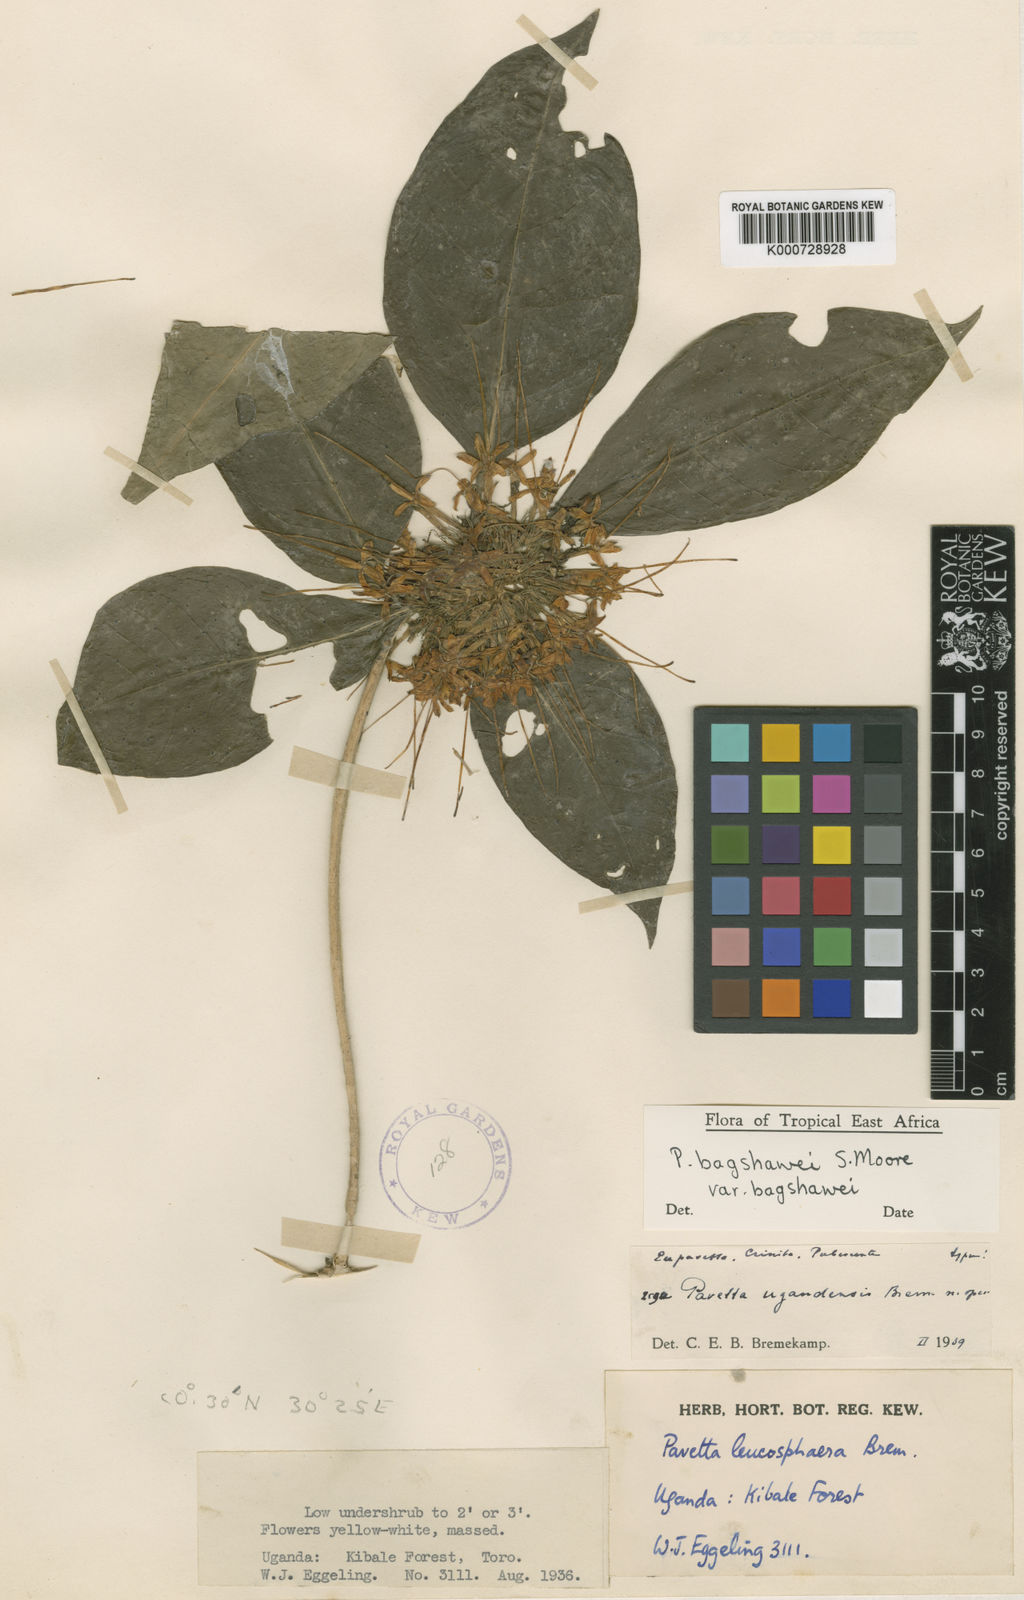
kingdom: Plantae
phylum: Tracheophyta
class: Magnoliopsida
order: Gentianales
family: Rubiaceae
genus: Pavetta
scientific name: Pavetta bagshawei
